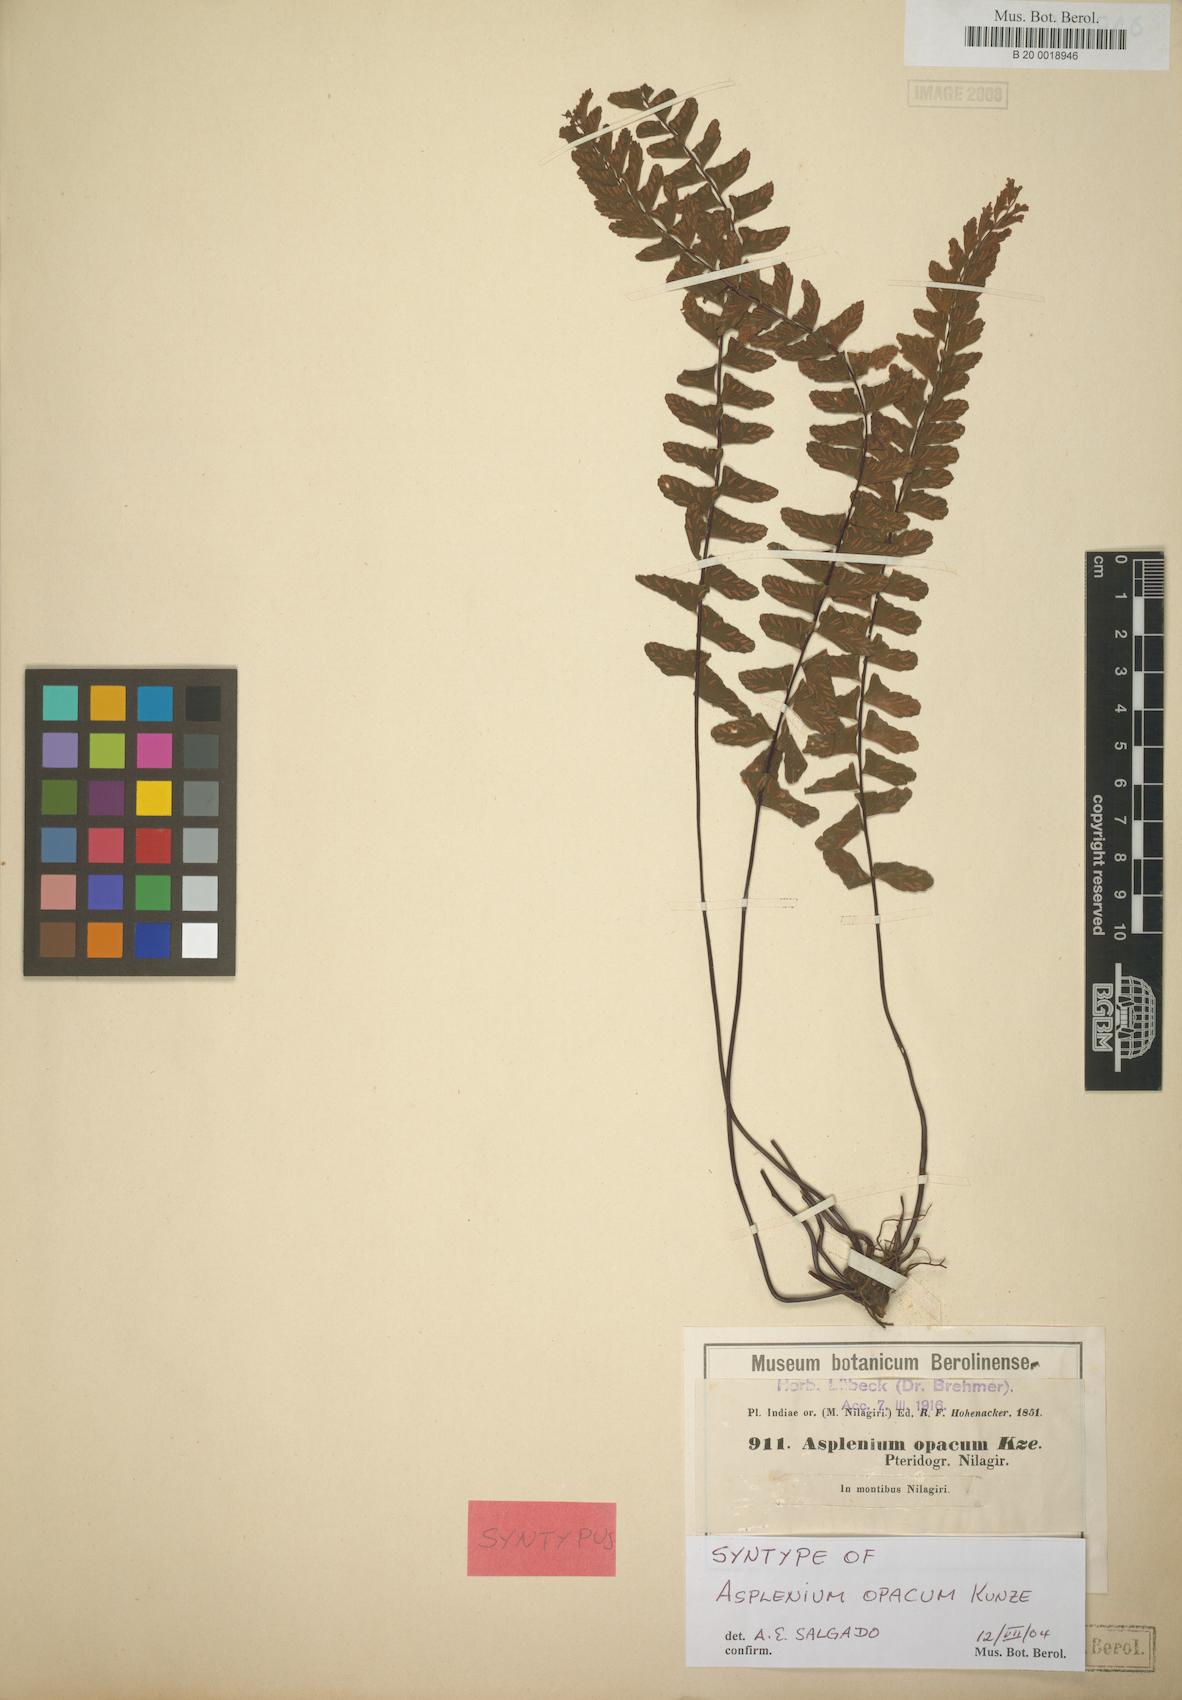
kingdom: Plantae
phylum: Tracheophyta
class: Polypodiopsida
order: Polypodiales
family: Aspleniaceae
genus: Asplenium
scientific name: Asplenium normale
